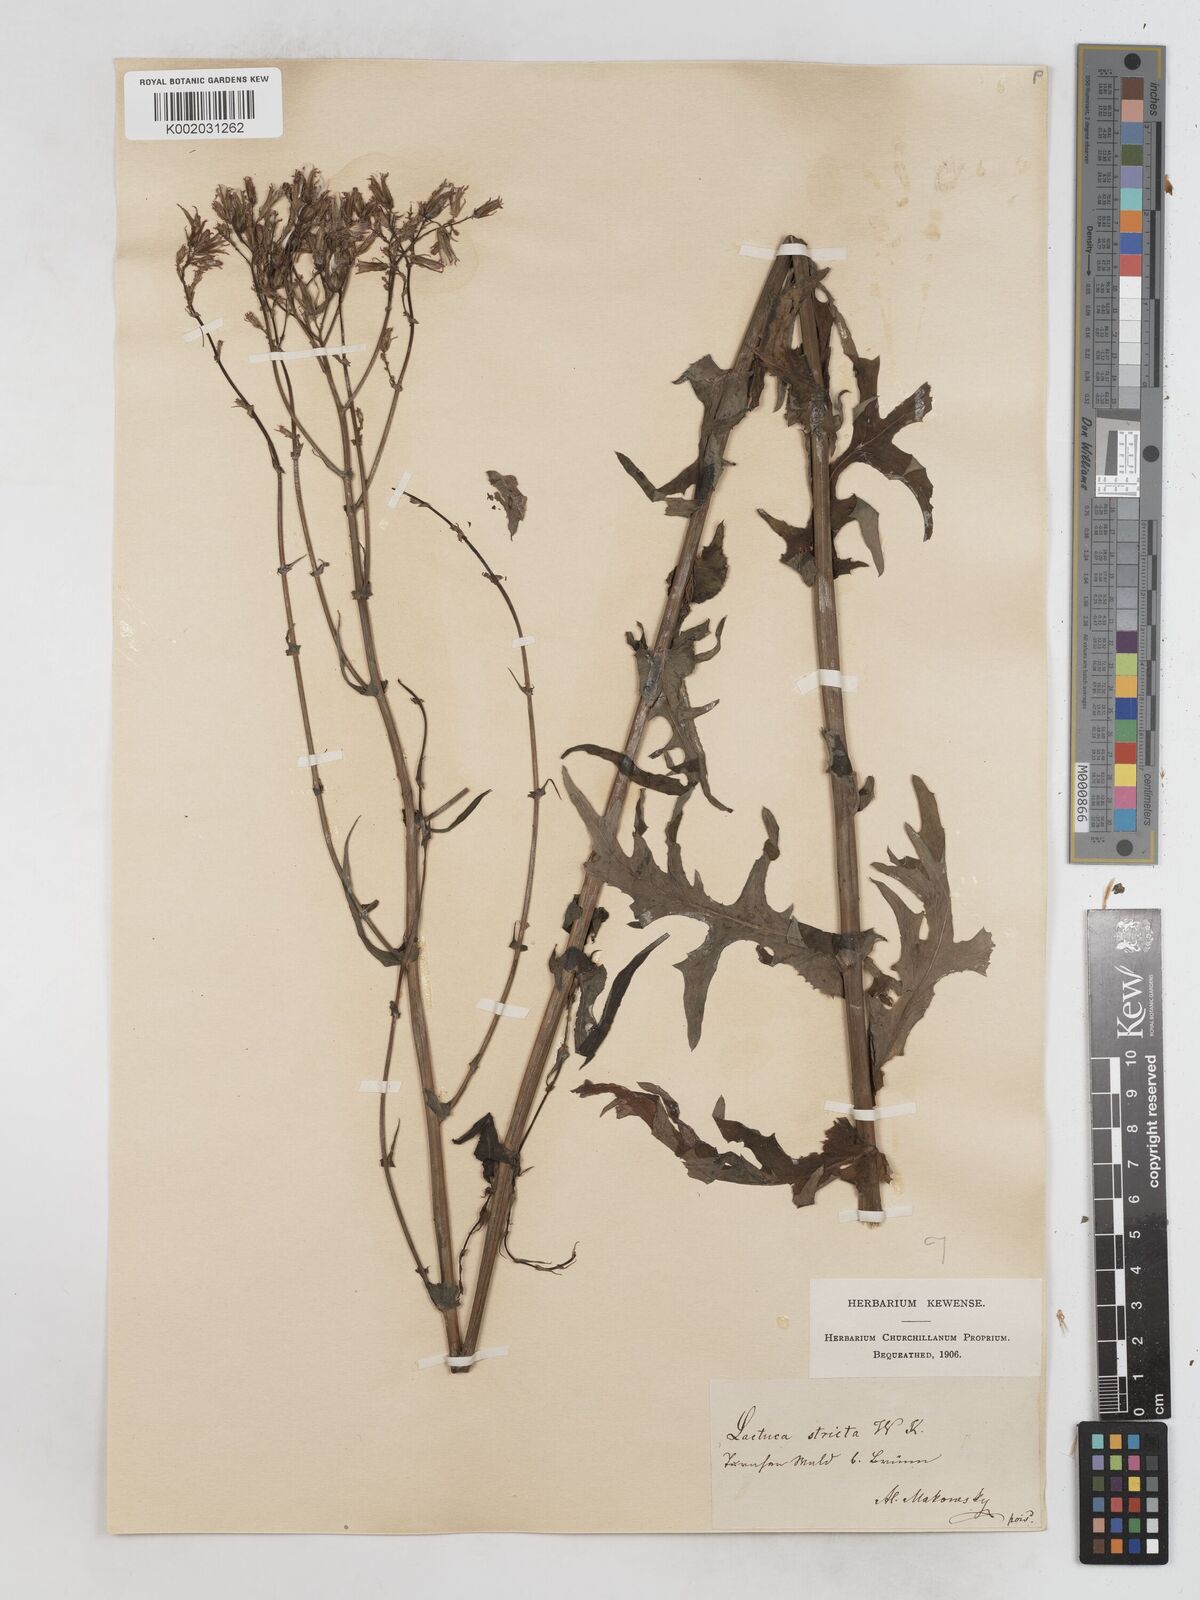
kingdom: Plantae
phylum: Tracheophyta
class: Magnoliopsida
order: Asterales
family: Asteraceae
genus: Lactuca
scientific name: Lactuca quercina
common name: Wild lettuce
